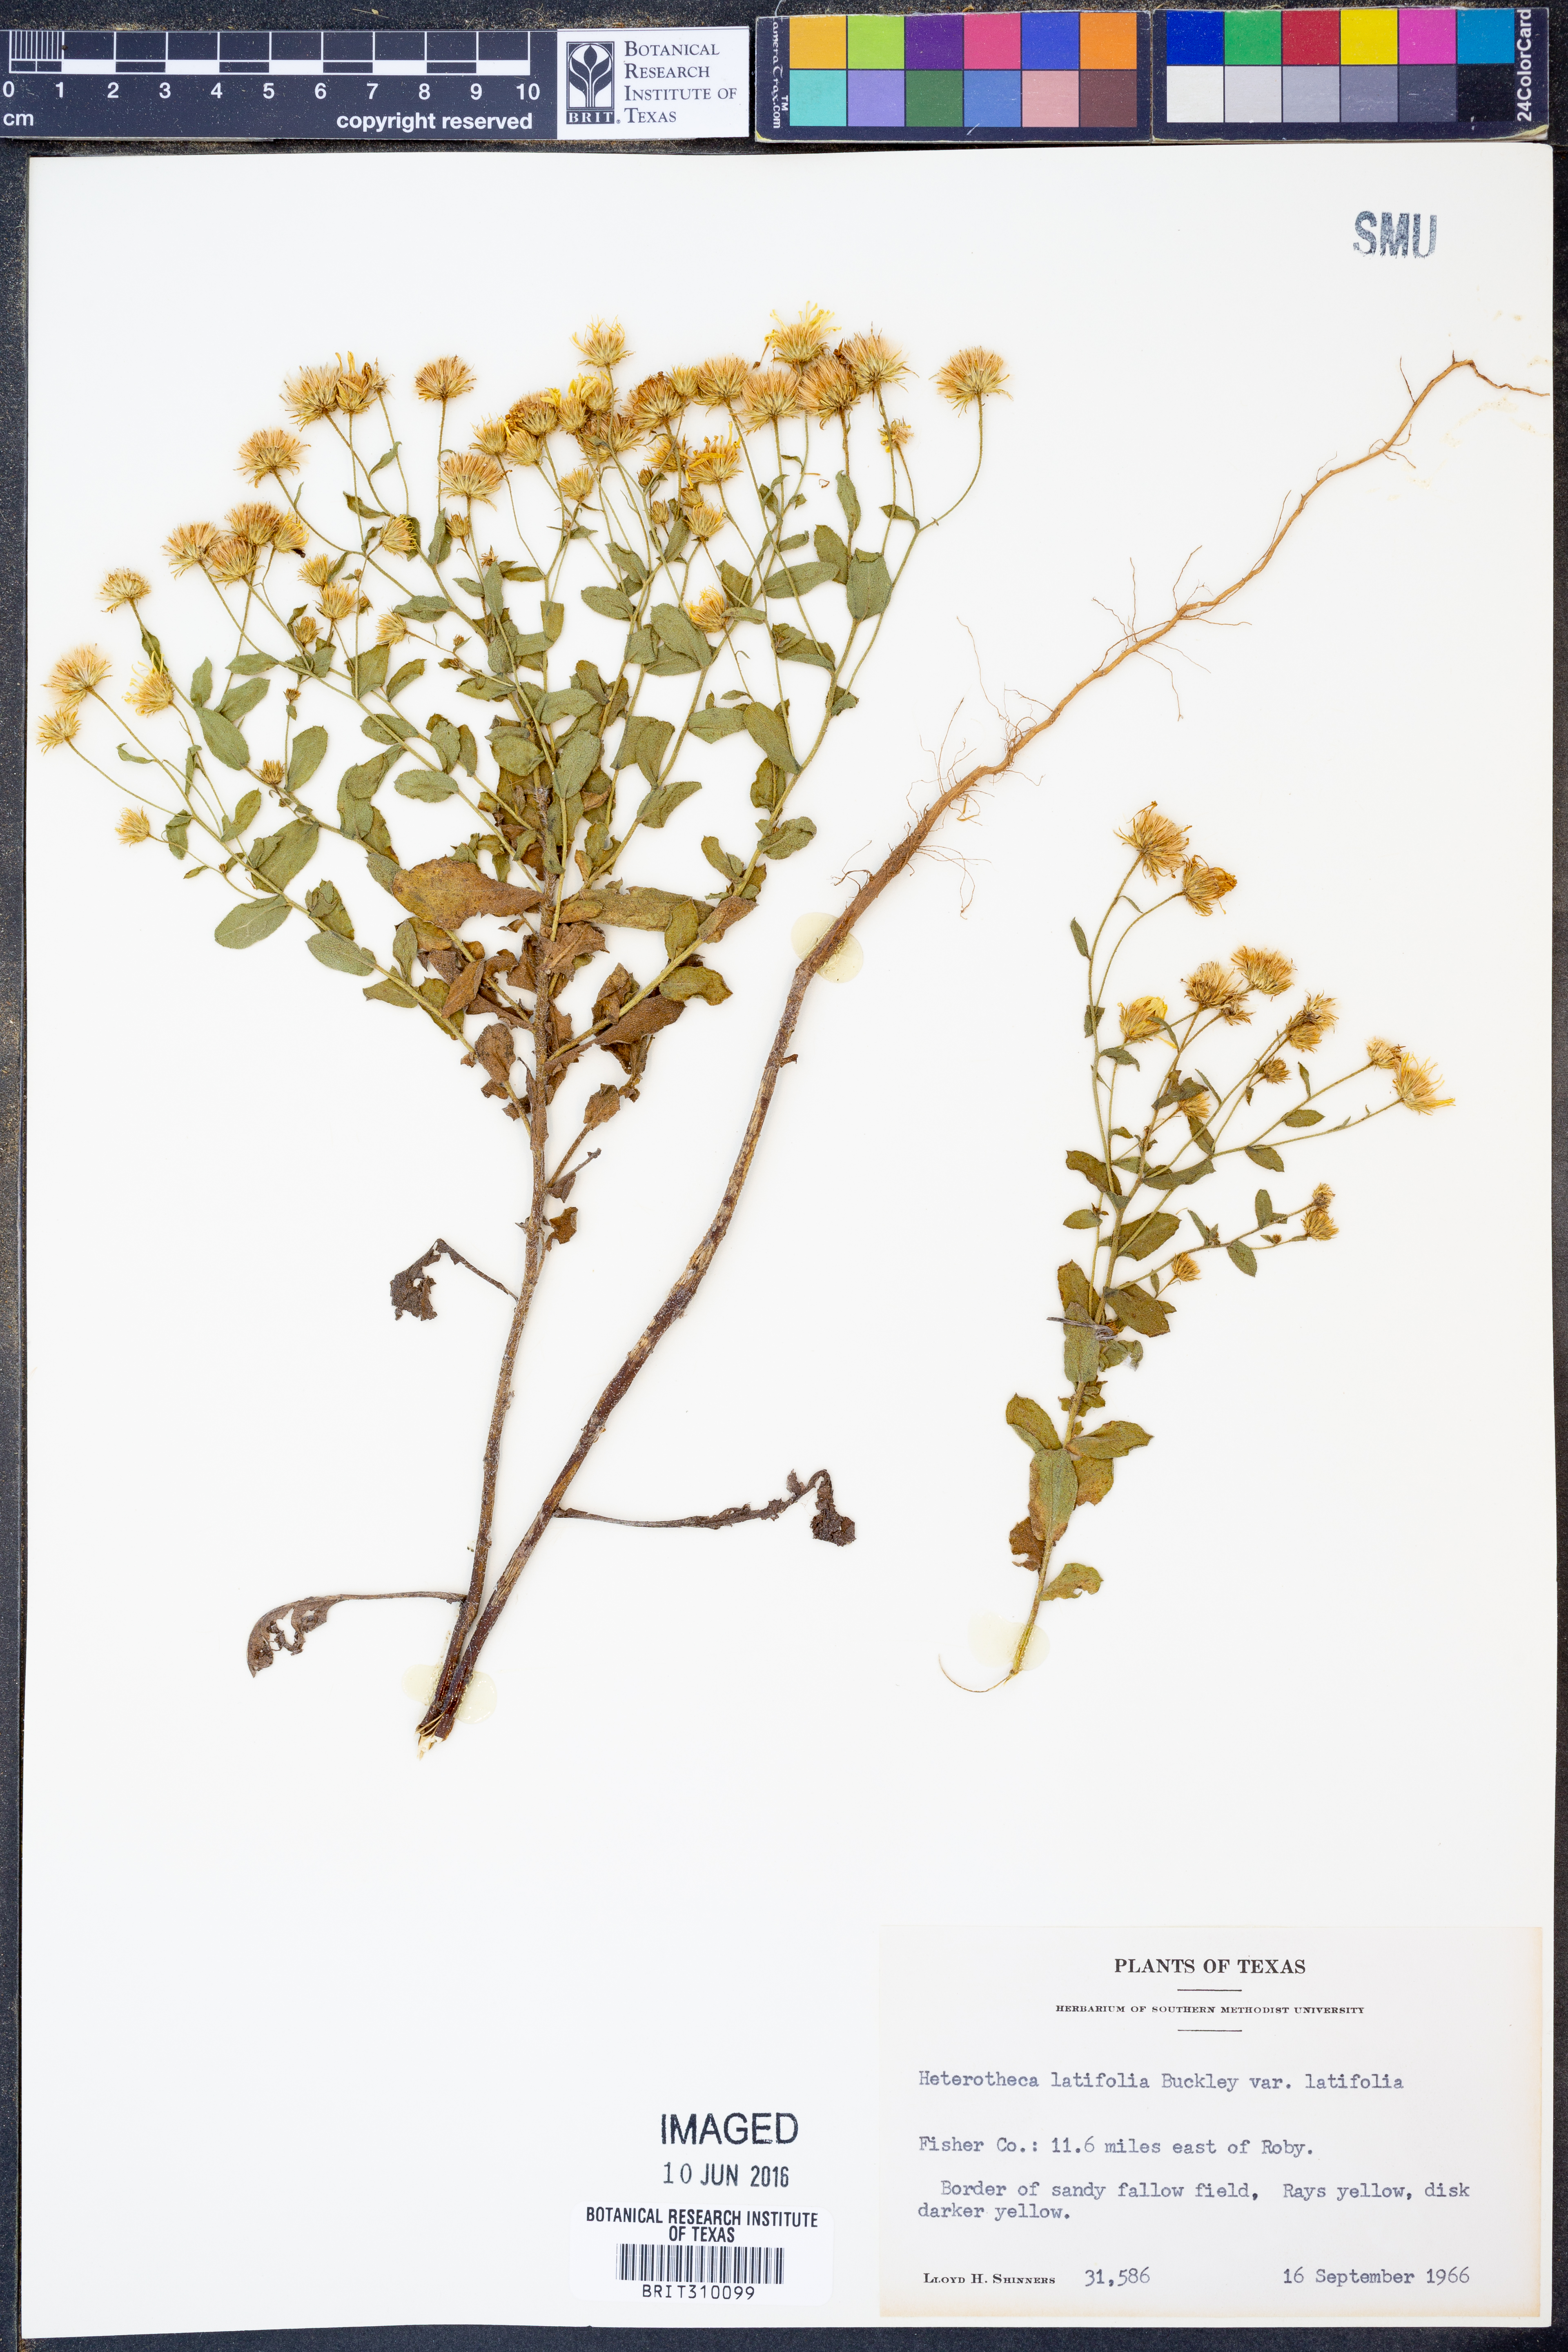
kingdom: Plantae
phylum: Tracheophyta
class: Magnoliopsida
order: Asterales
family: Asteraceae
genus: Heterotheca
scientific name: Heterotheca subaxillaris
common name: Camphorweed
